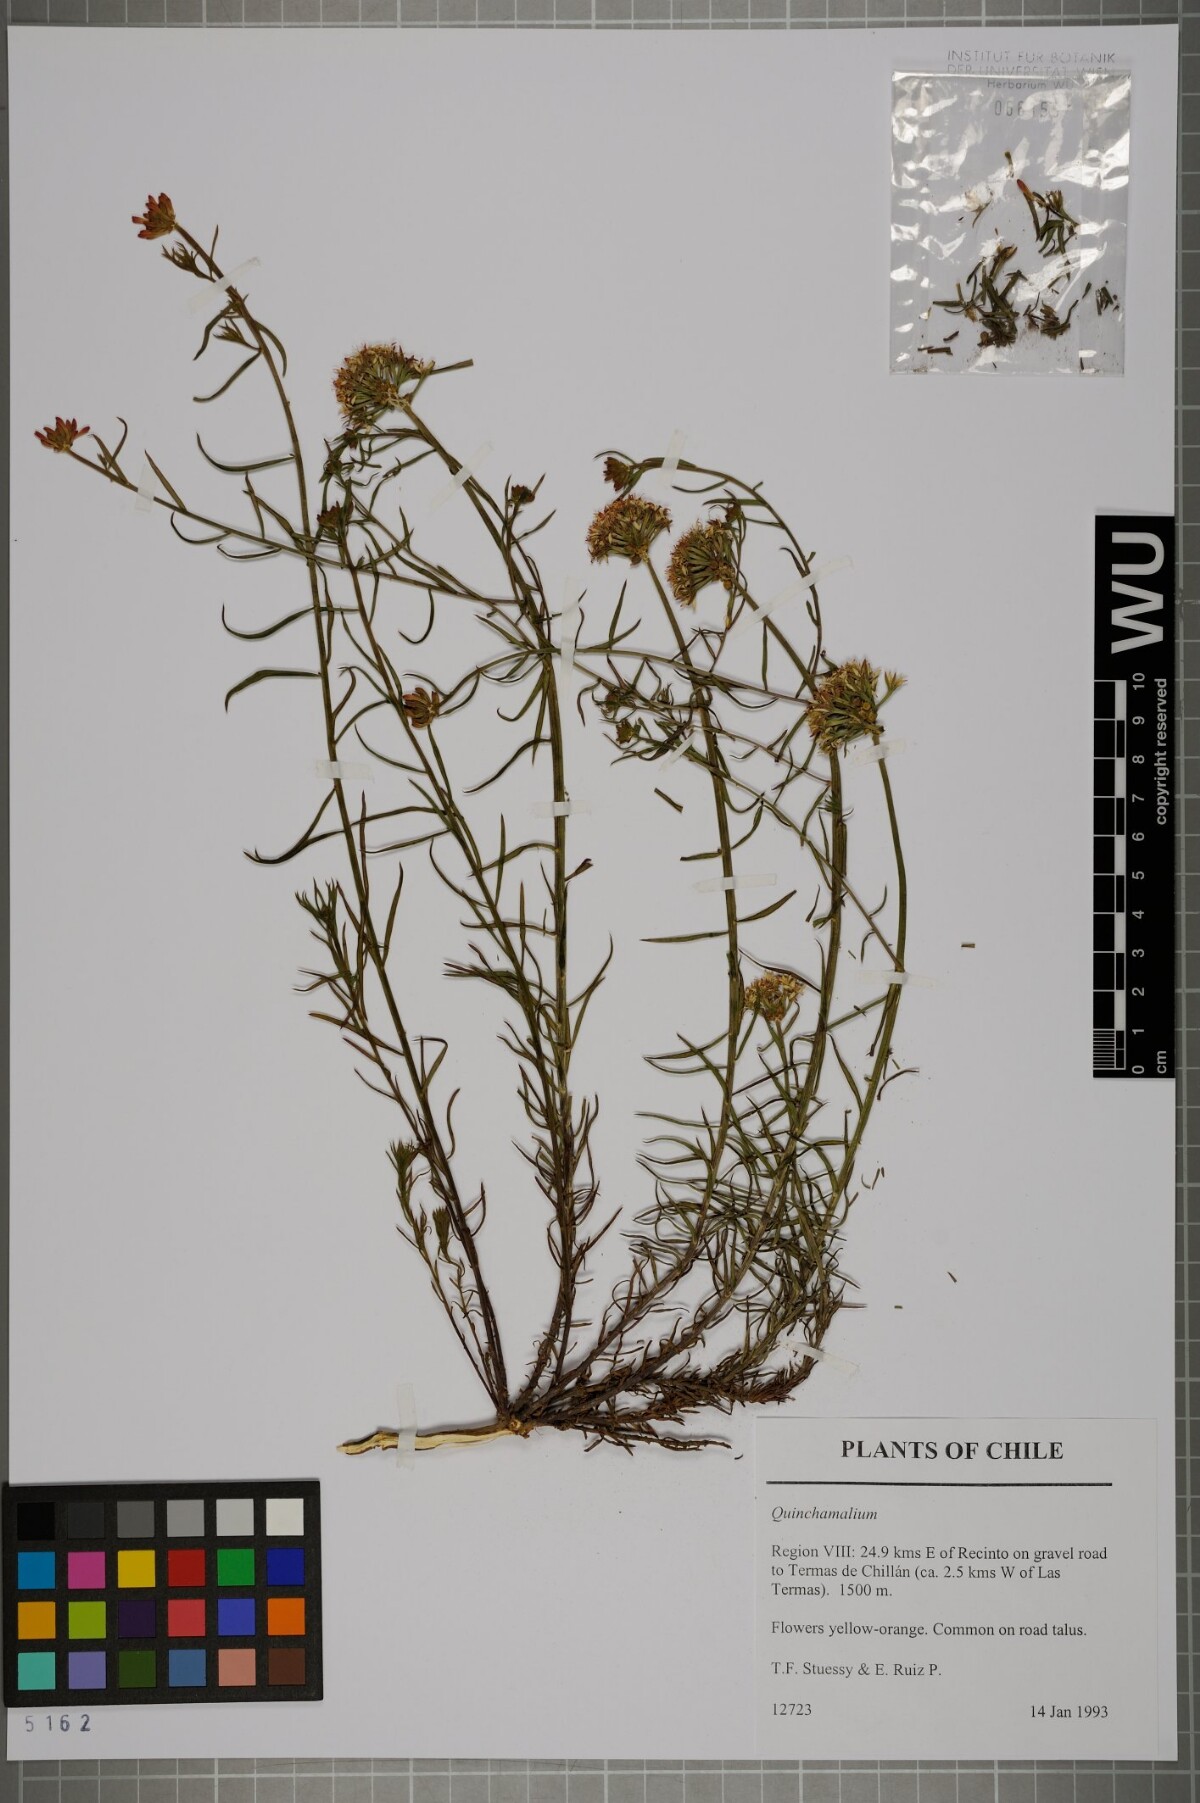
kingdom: Plantae
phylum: Tracheophyta
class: Magnoliopsida
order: Santalales
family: Schoepfiaceae
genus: Quinchamalium
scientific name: Quinchamalium
